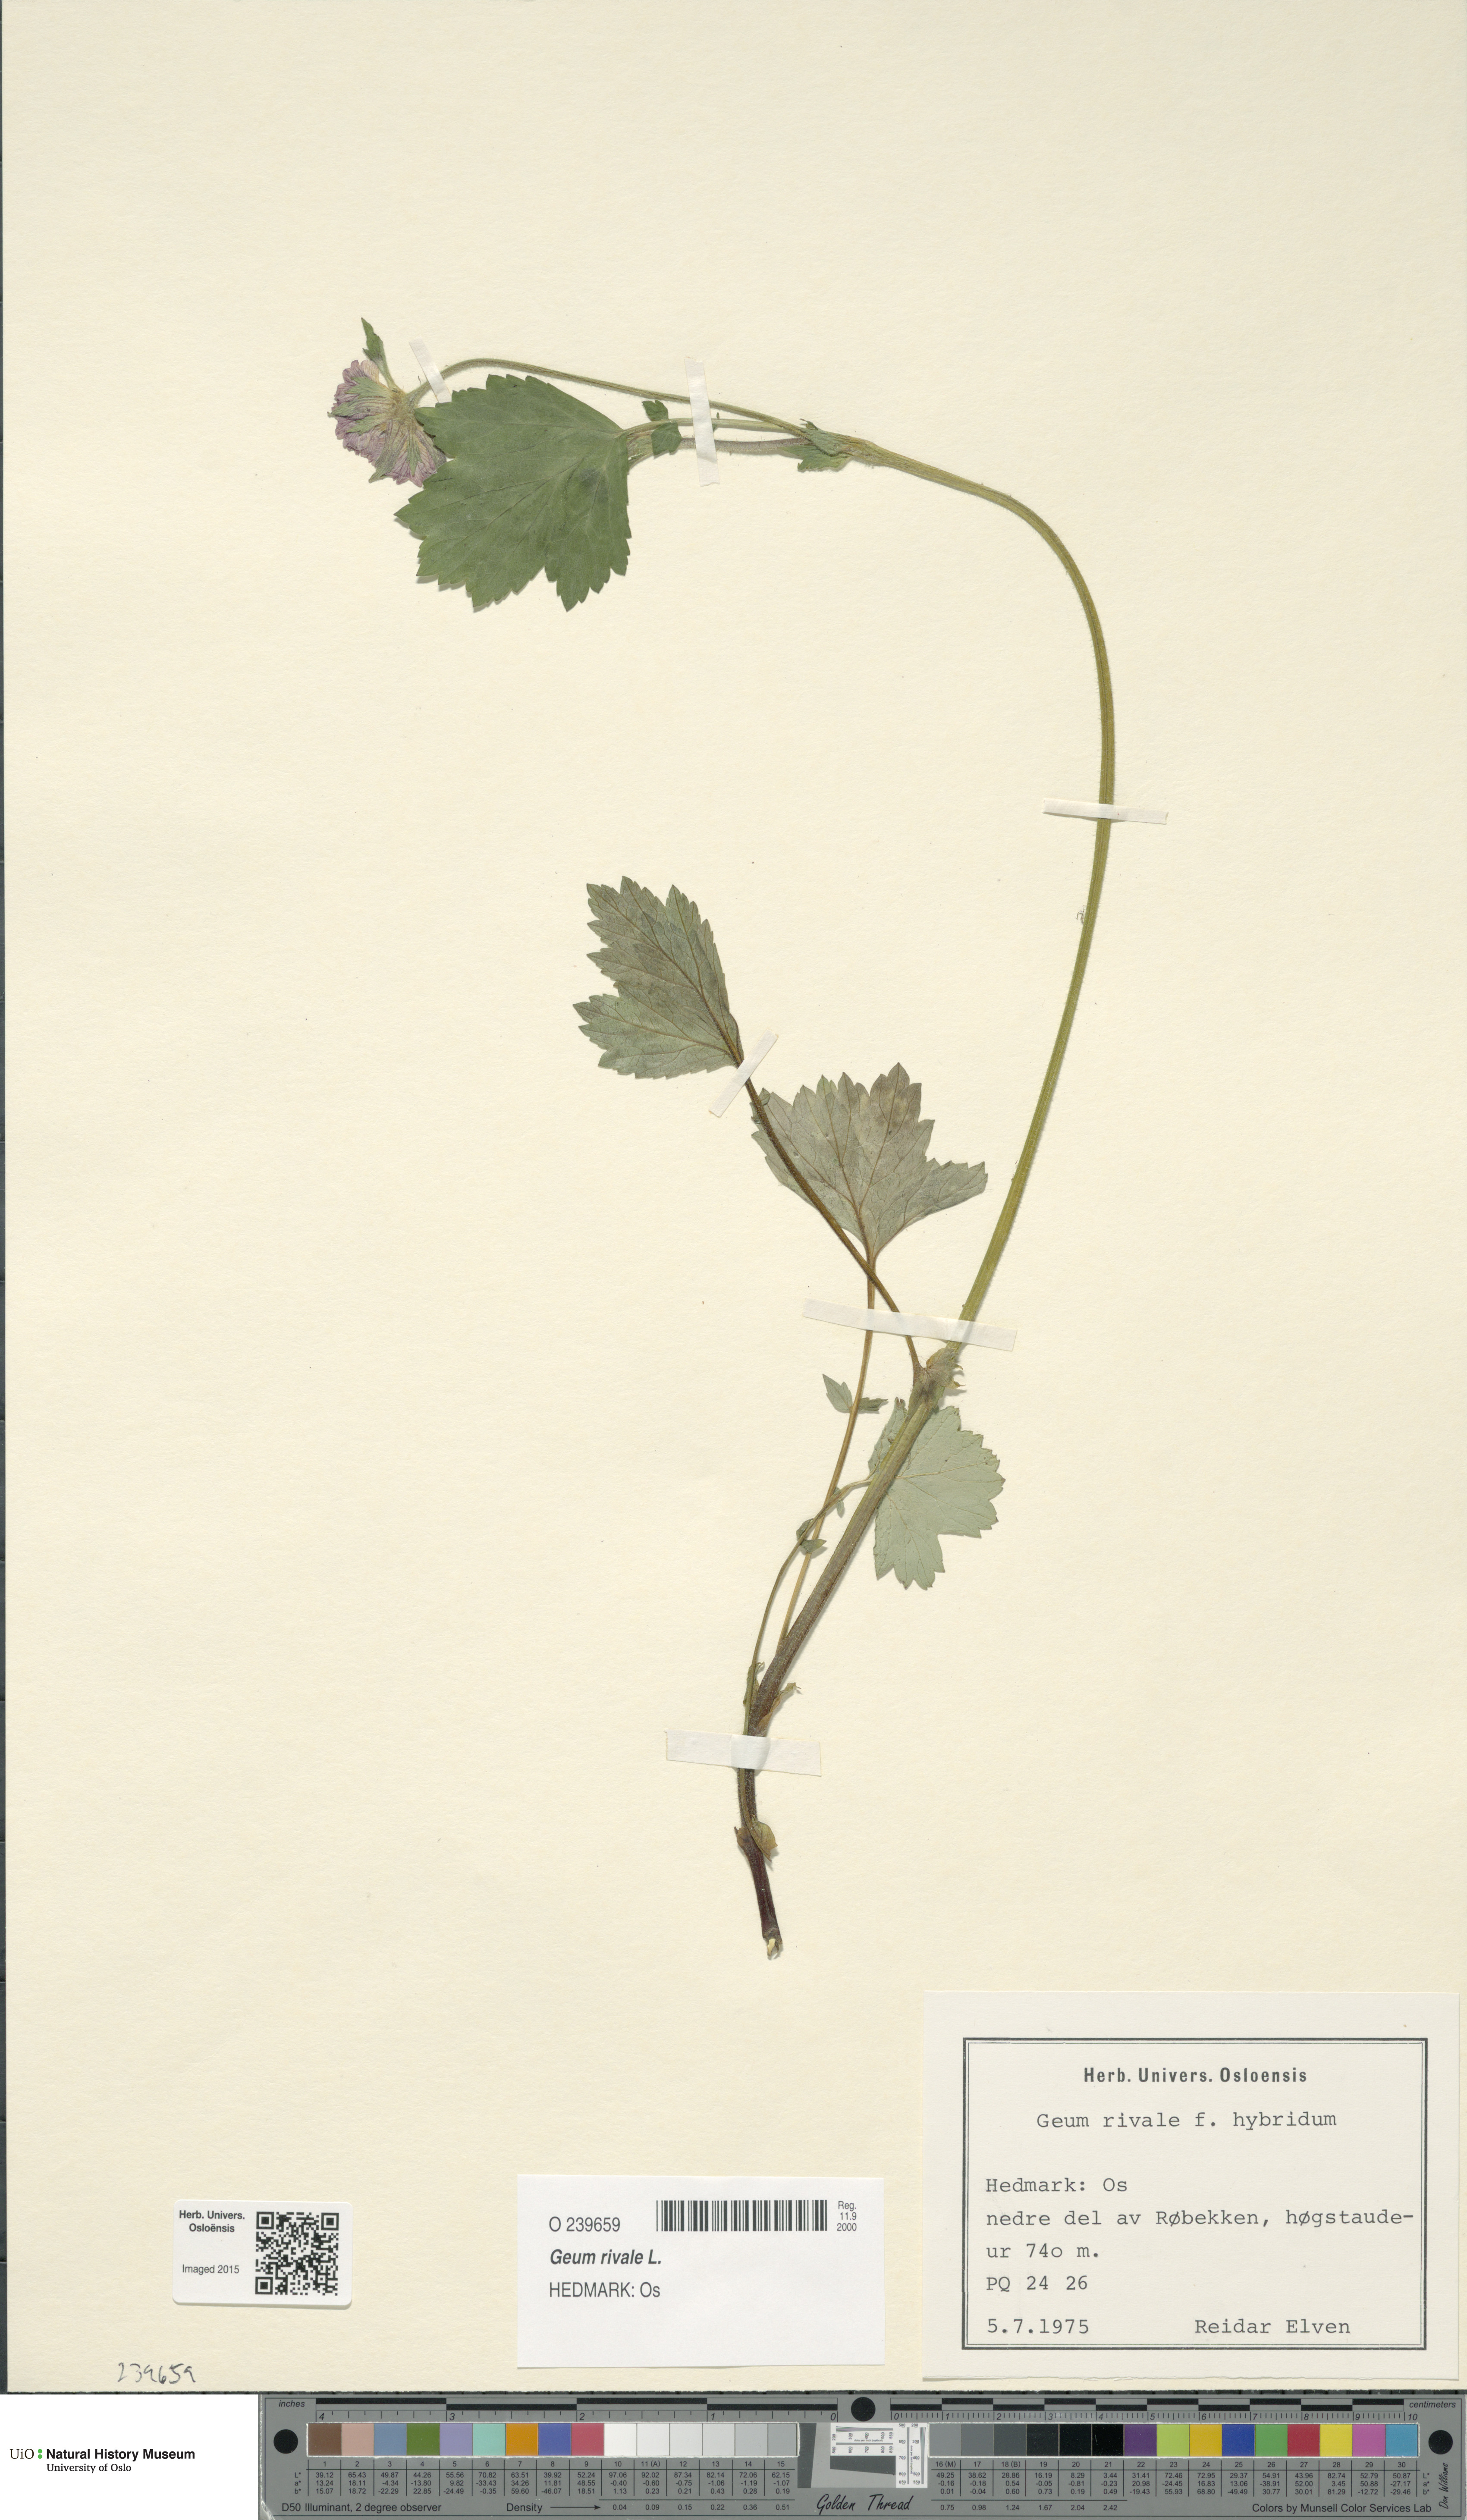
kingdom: Plantae
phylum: Tracheophyta
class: Magnoliopsida
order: Rosales
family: Rosaceae
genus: Geum
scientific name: Geum rivale
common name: Water avens
